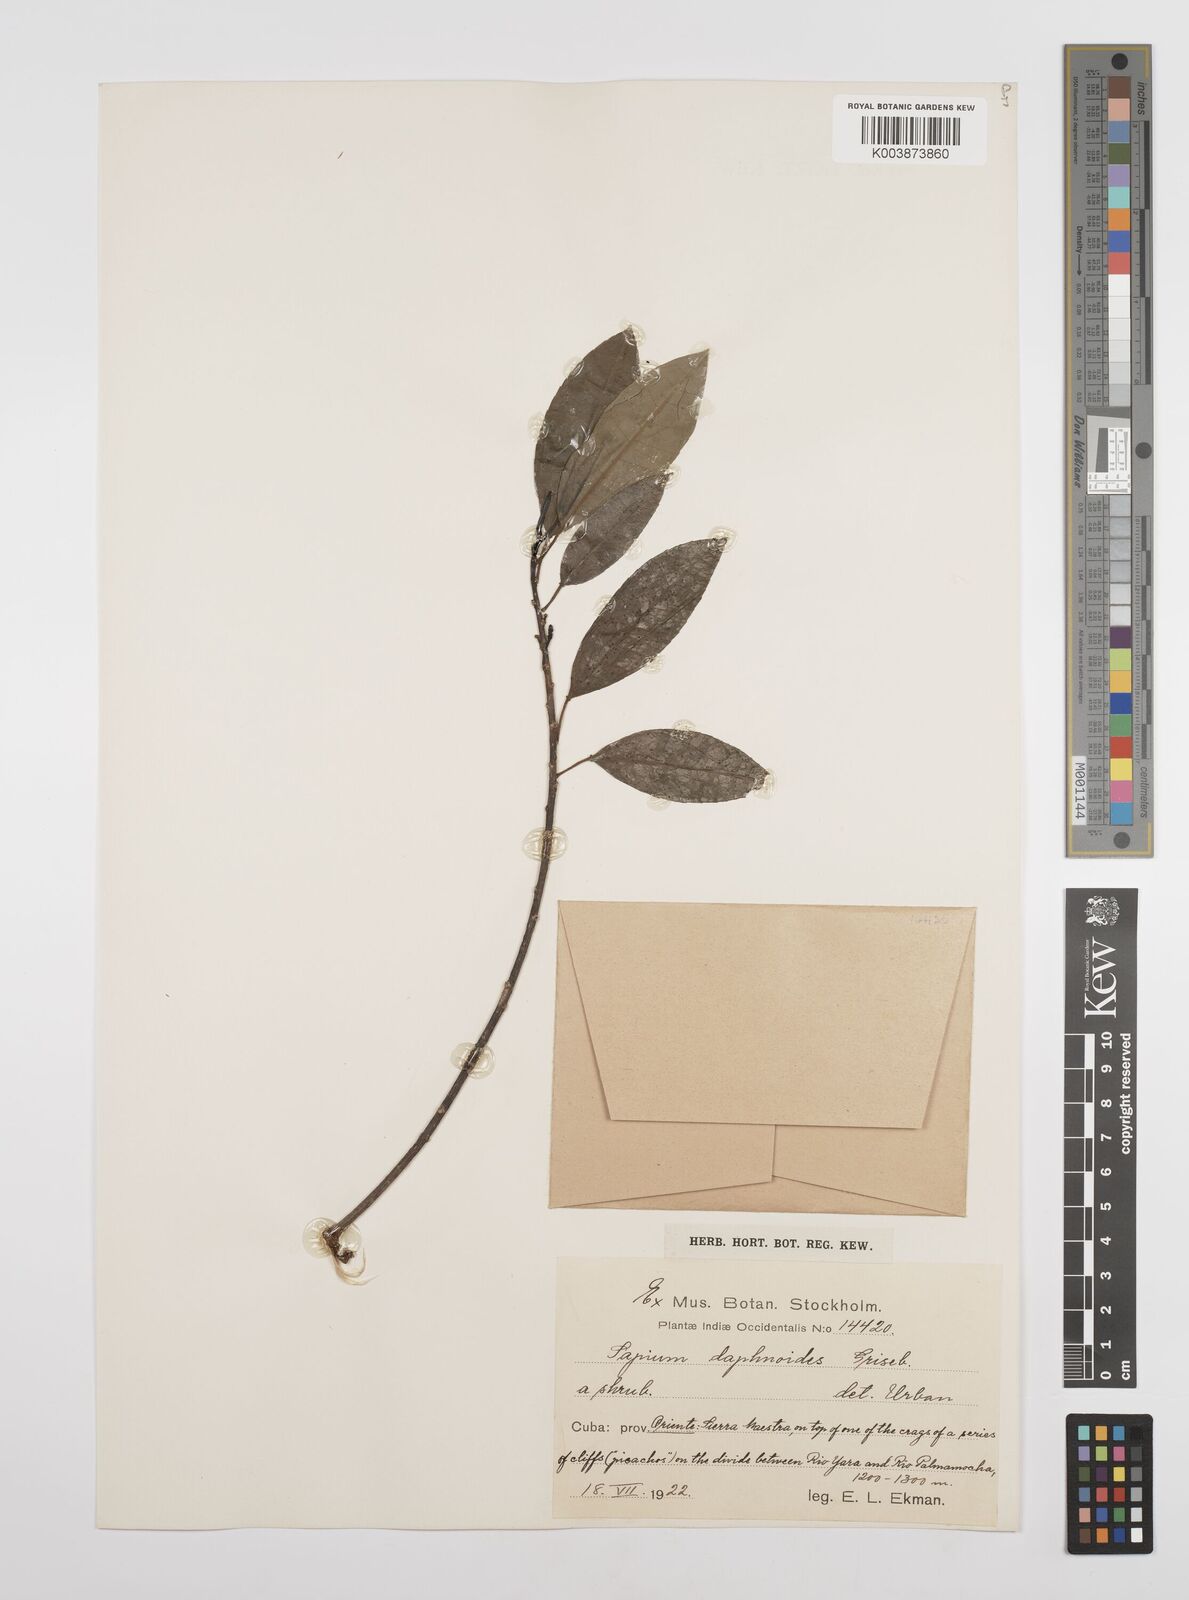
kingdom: Plantae
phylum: Tracheophyta
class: Magnoliopsida
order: Malpighiales
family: Euphorbiaceae
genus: Sapium
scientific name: Sapium daphnoides
